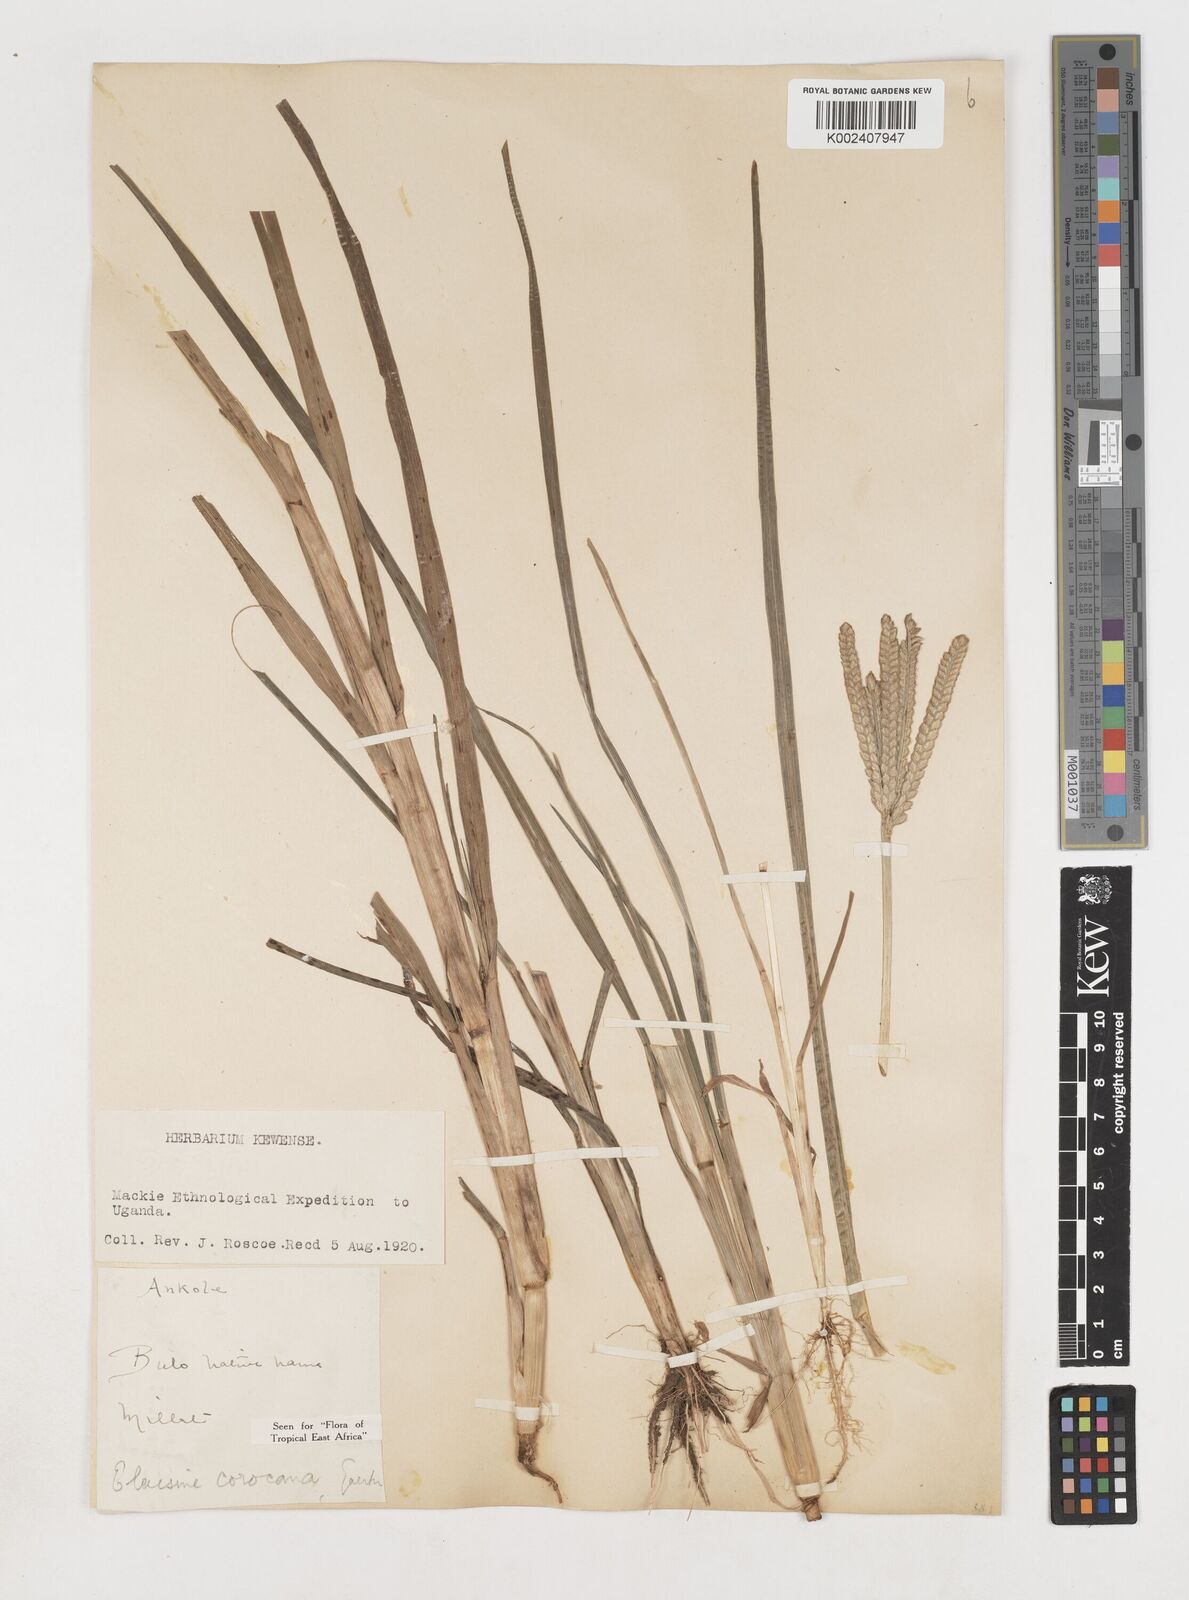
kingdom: Plantae
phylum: Tracheophyta
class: Liliopsida
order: Poales
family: Poaceae
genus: Eleusine
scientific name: Eleusine coracana
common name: Finger millet
